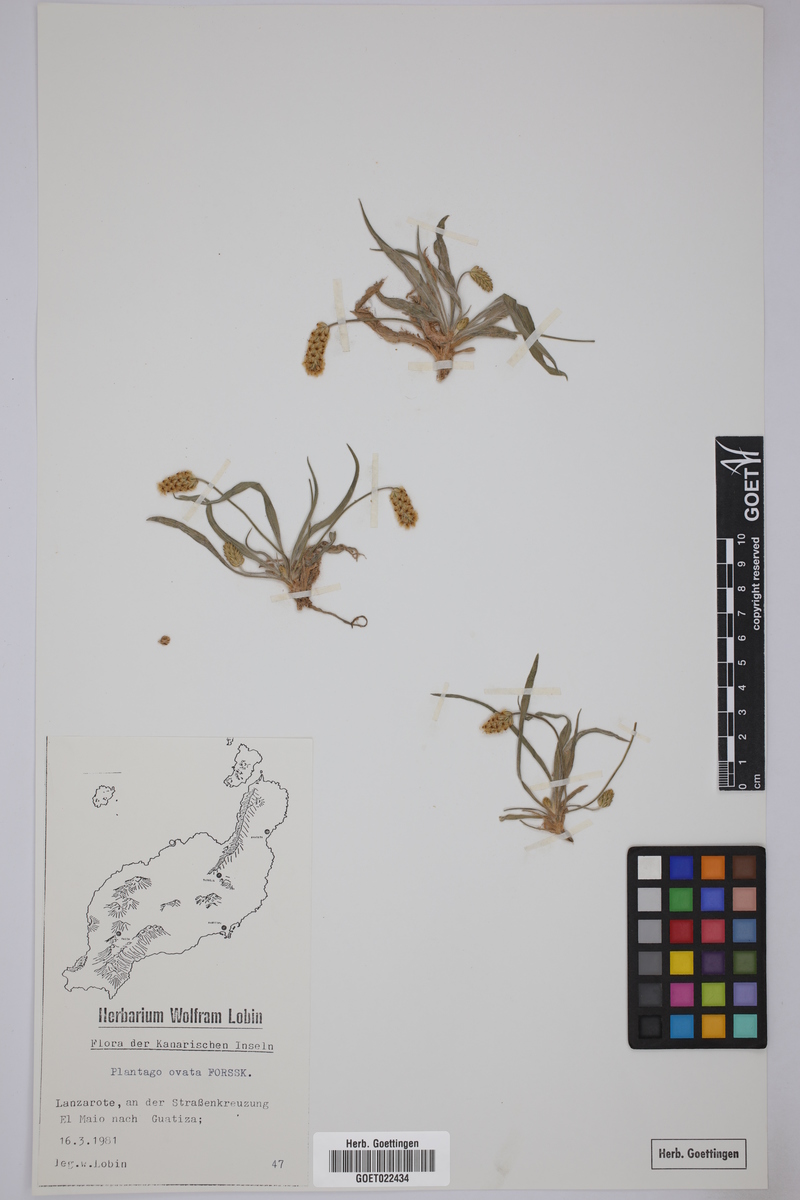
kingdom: Plantae
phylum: Tracheophyta
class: Magnoliopsida
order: Lamiales
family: Plantaginaceae
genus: Plantago
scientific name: Plantago ovata
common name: Blond plantain
